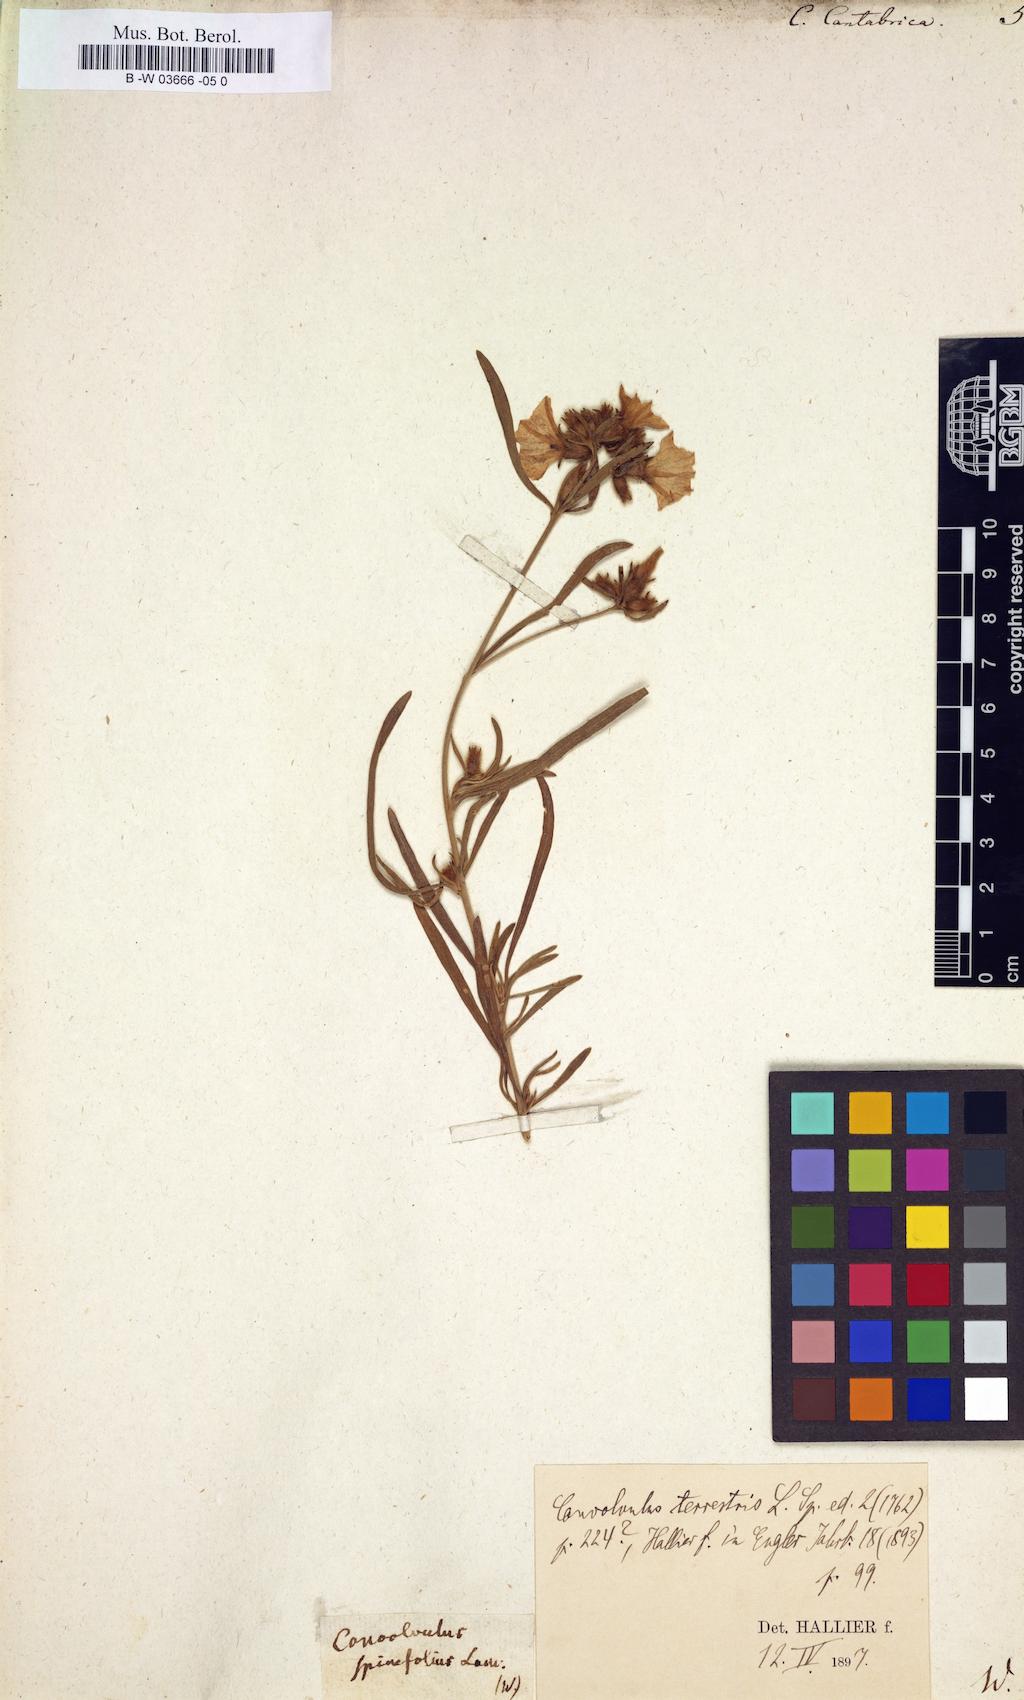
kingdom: Plantae
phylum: Tracheophyta
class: Magnoliopsida
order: Solanales
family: Convolvulaceae
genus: Convolvulus
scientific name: Convolvulus cantabrica
